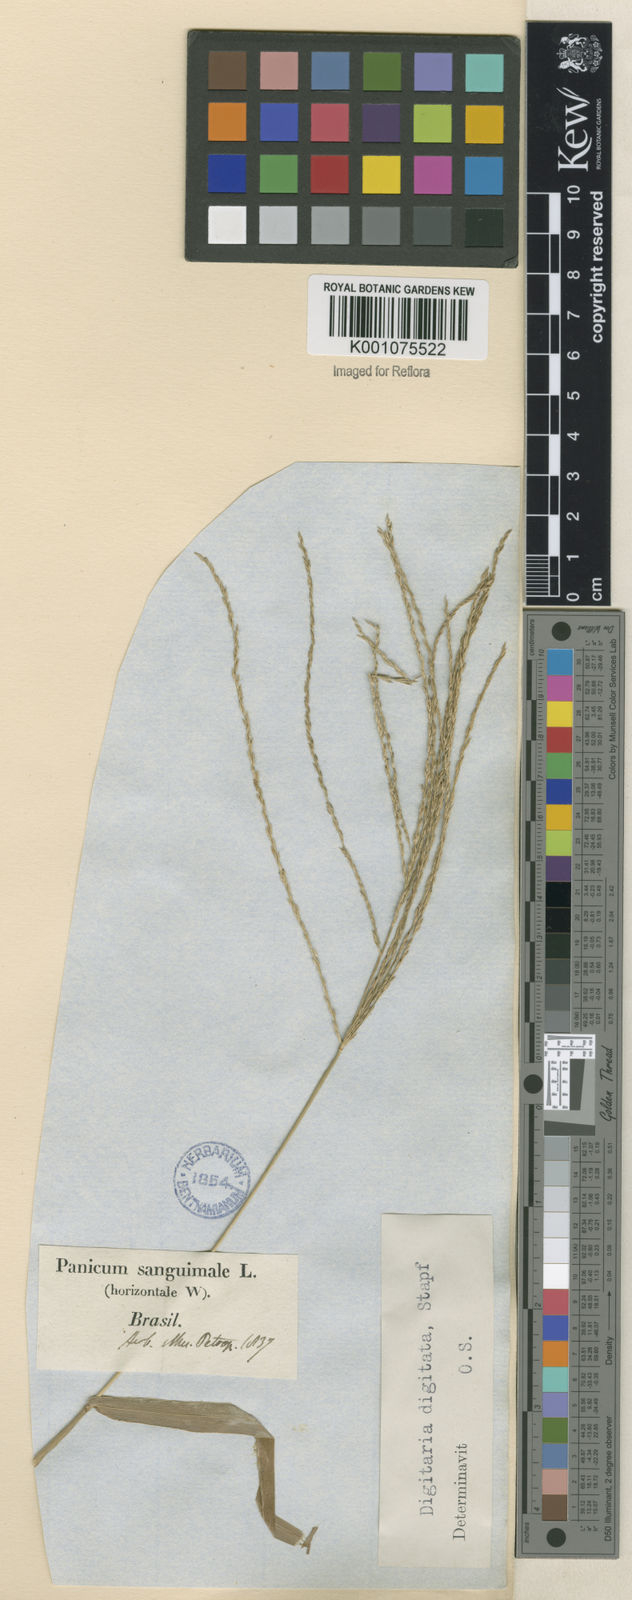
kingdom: Plantae
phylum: Tracheophyta
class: Liliopsida
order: Poales
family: Poaceae
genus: Digitaria
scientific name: Digitaria horizontalis
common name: Jamaican crabgrass
